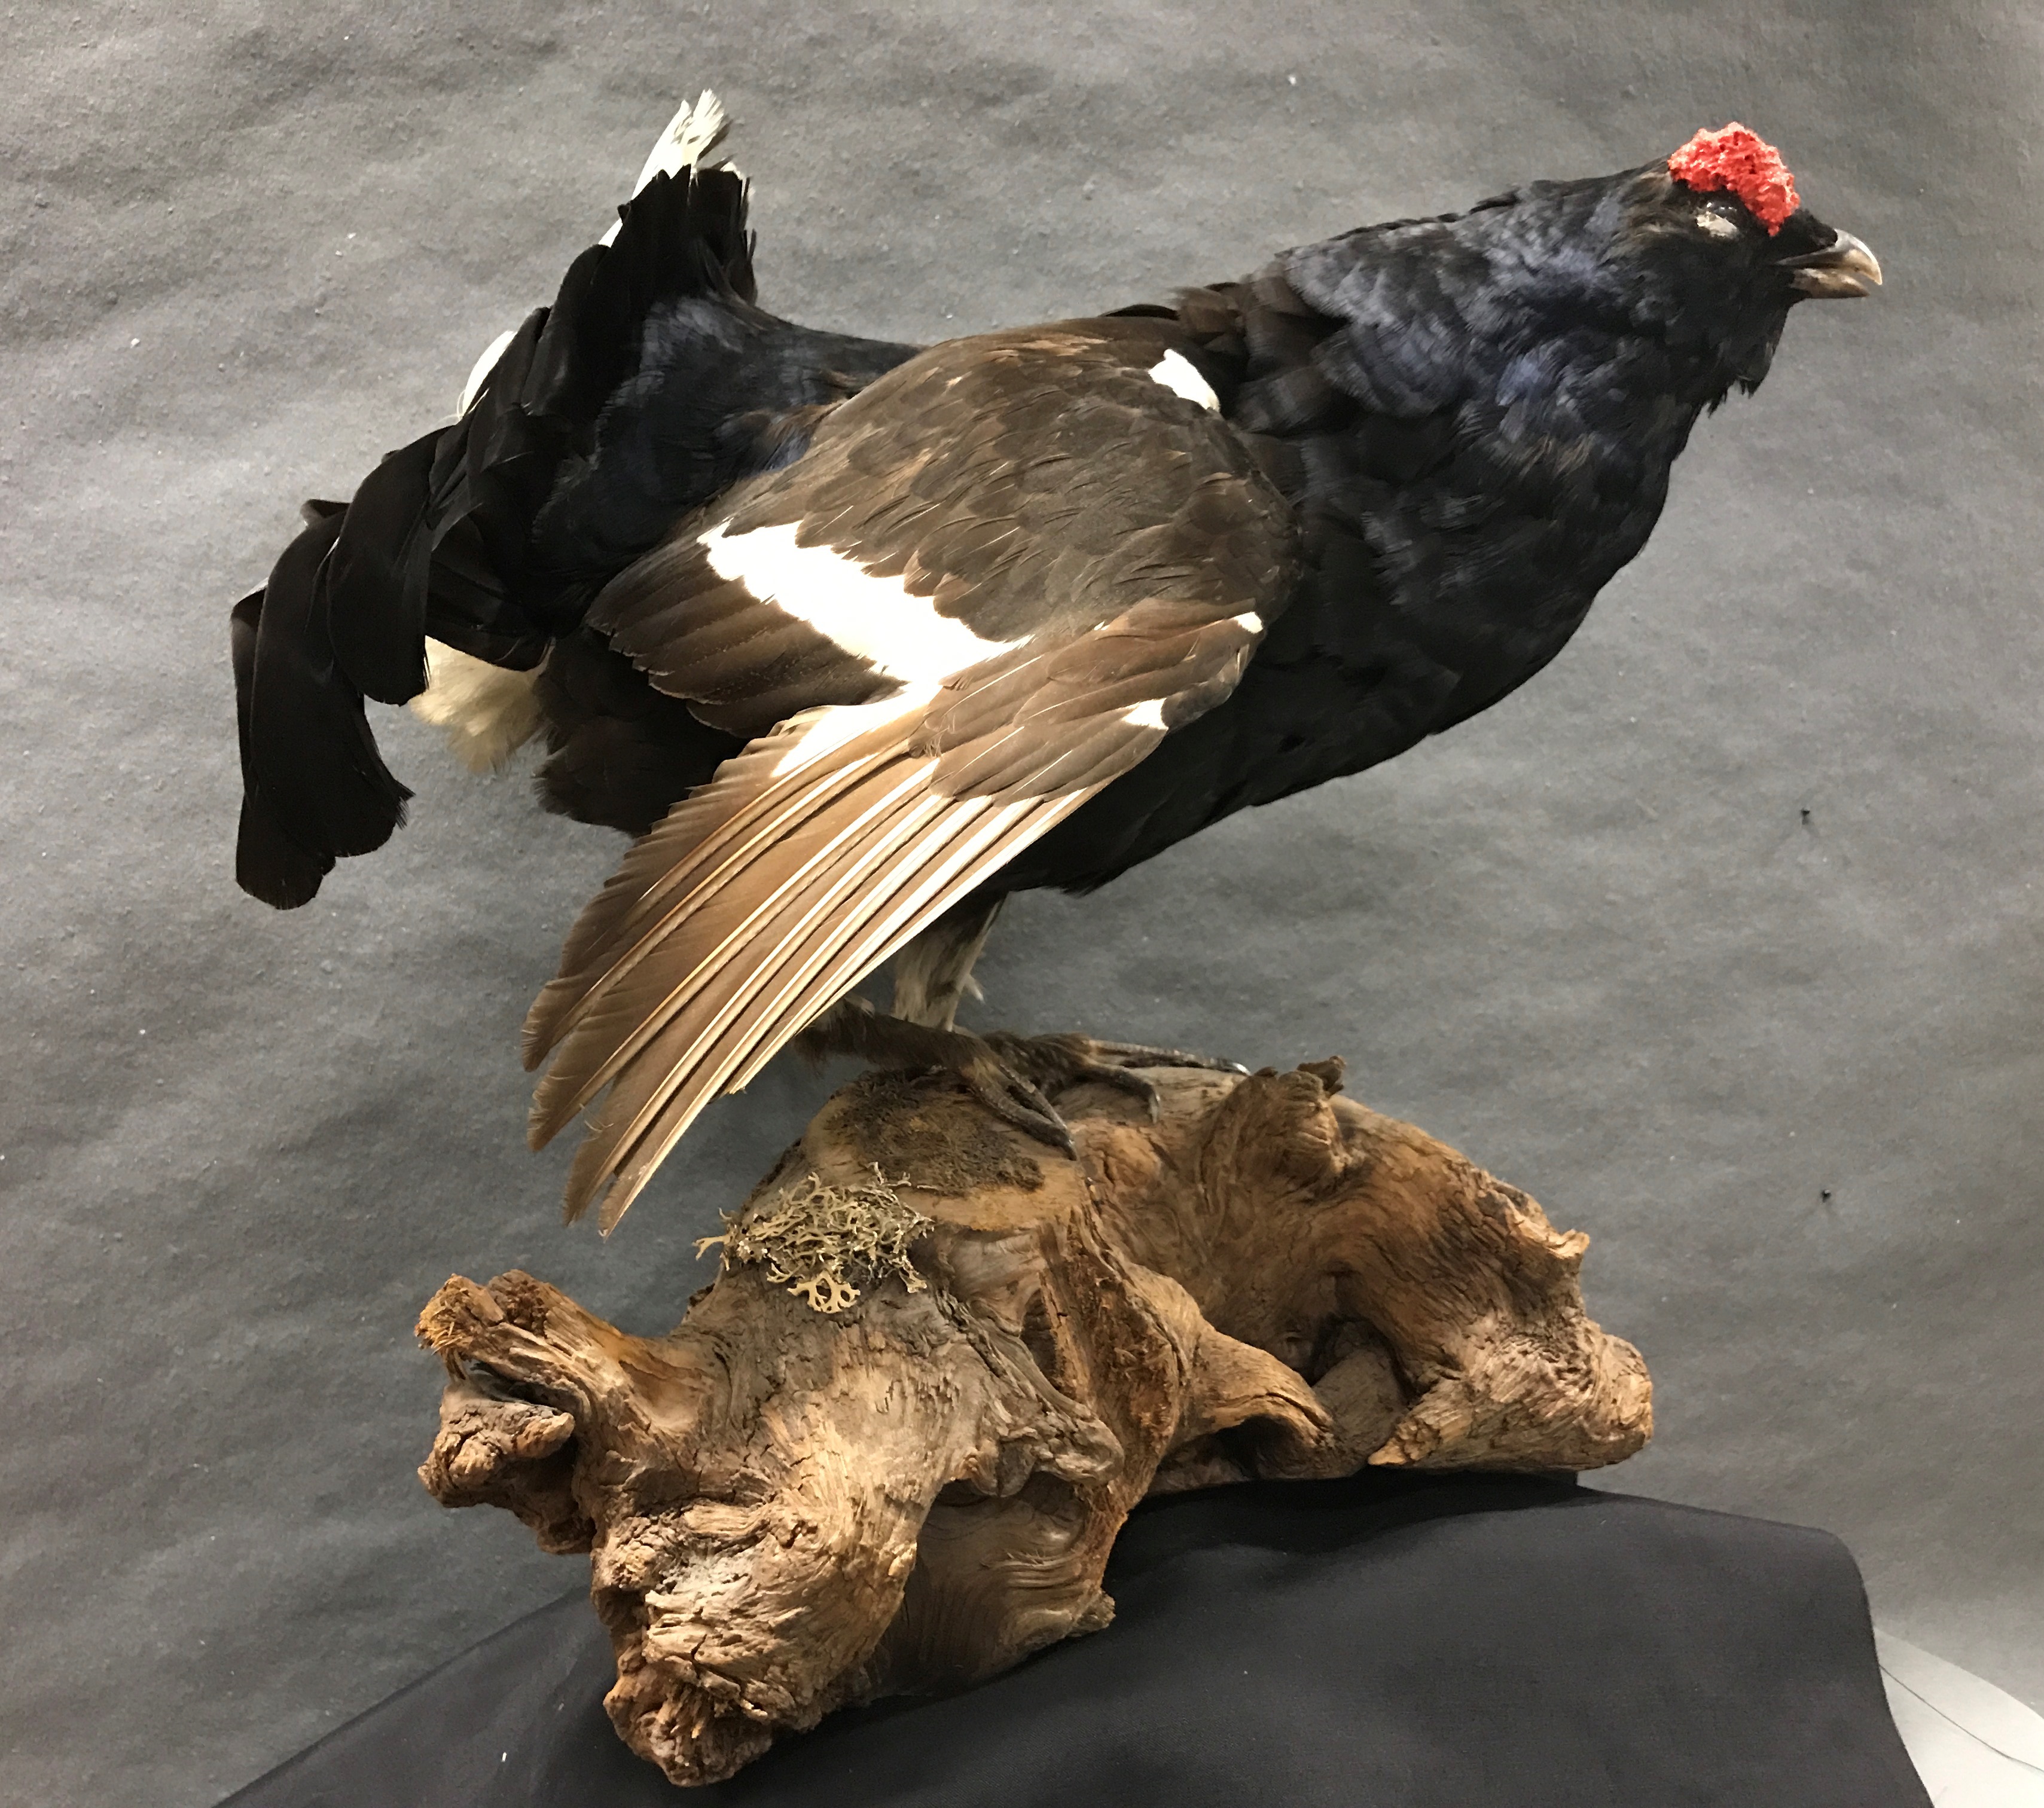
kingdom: Animalia
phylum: Chordata
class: Aves
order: Galliformes
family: Phasianidae
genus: Lyrurus
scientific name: Lyrurus tetrix
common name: Black grouse
